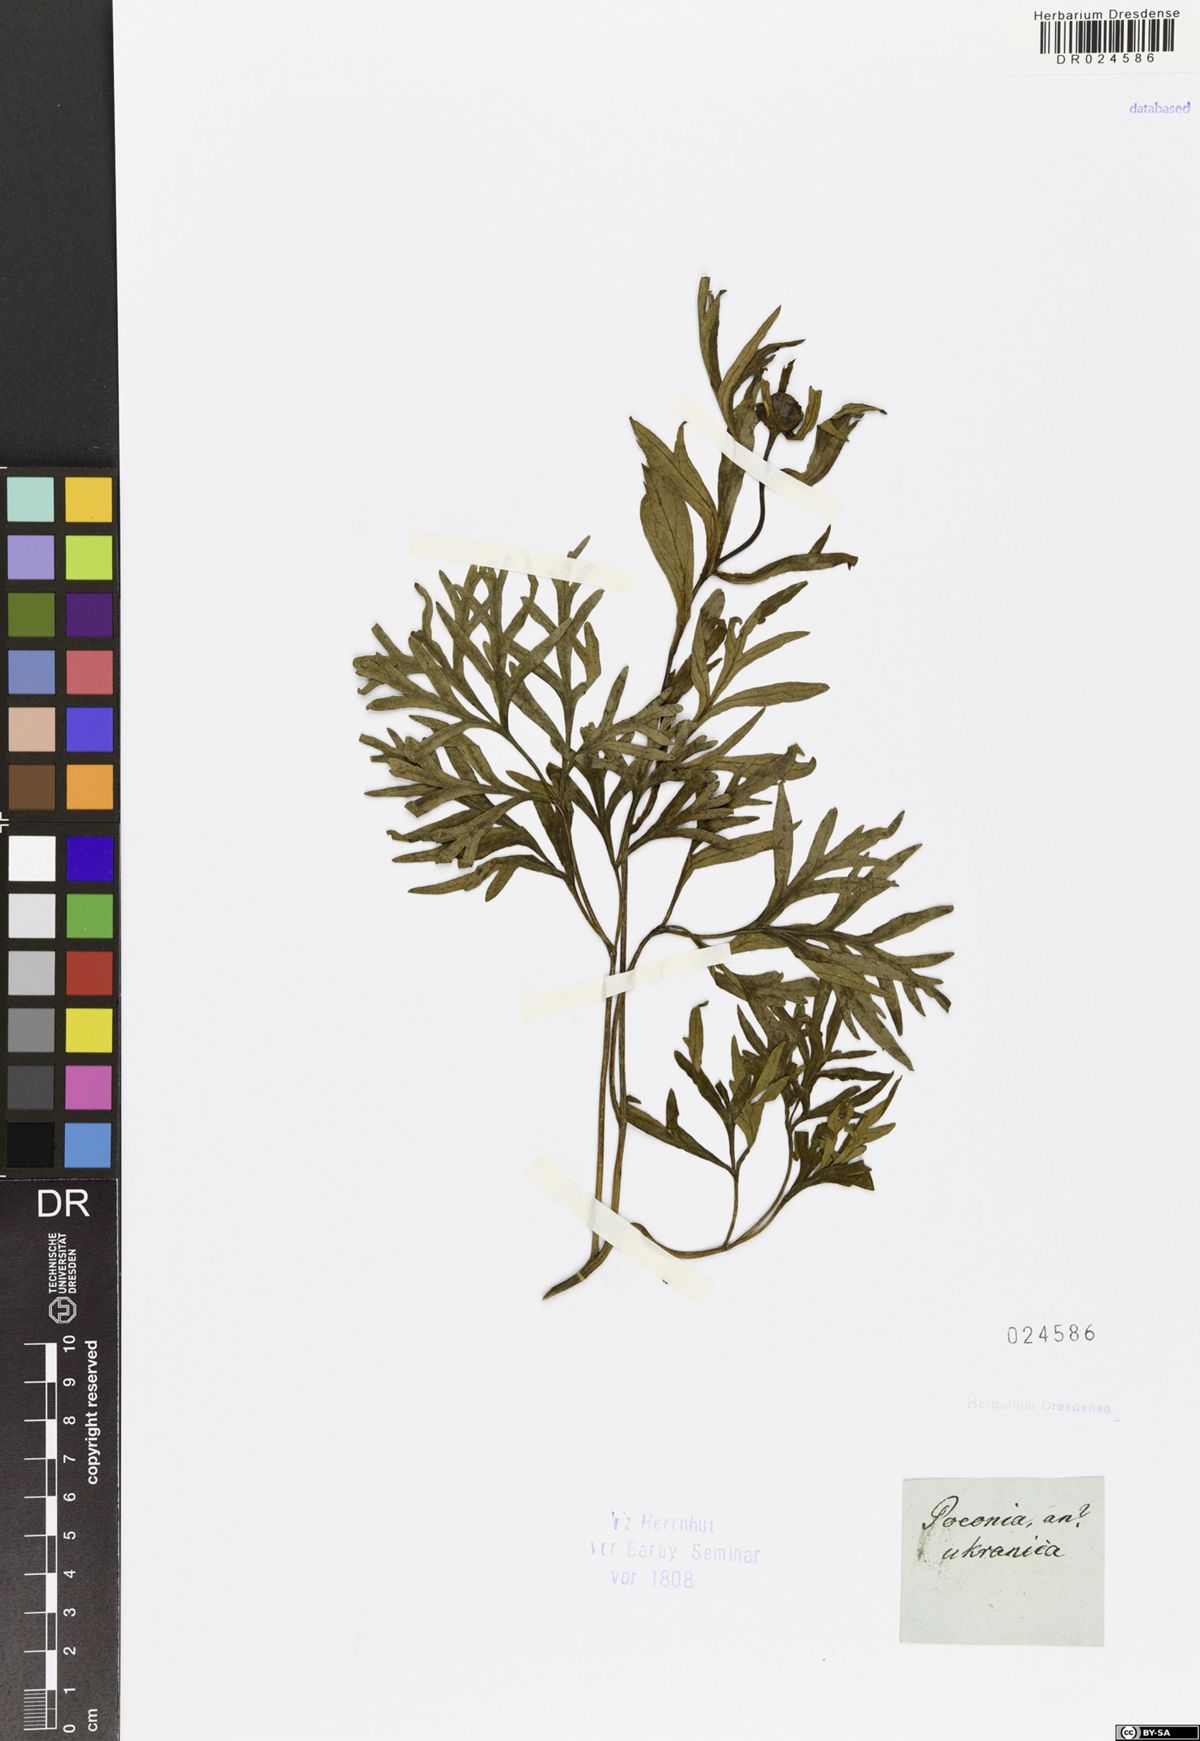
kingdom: Plantae
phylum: Tracheophyta
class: Magnoliopsida
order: Saxifragales
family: Paeoniaceae
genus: Paeonia
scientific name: Paeonia anomala
